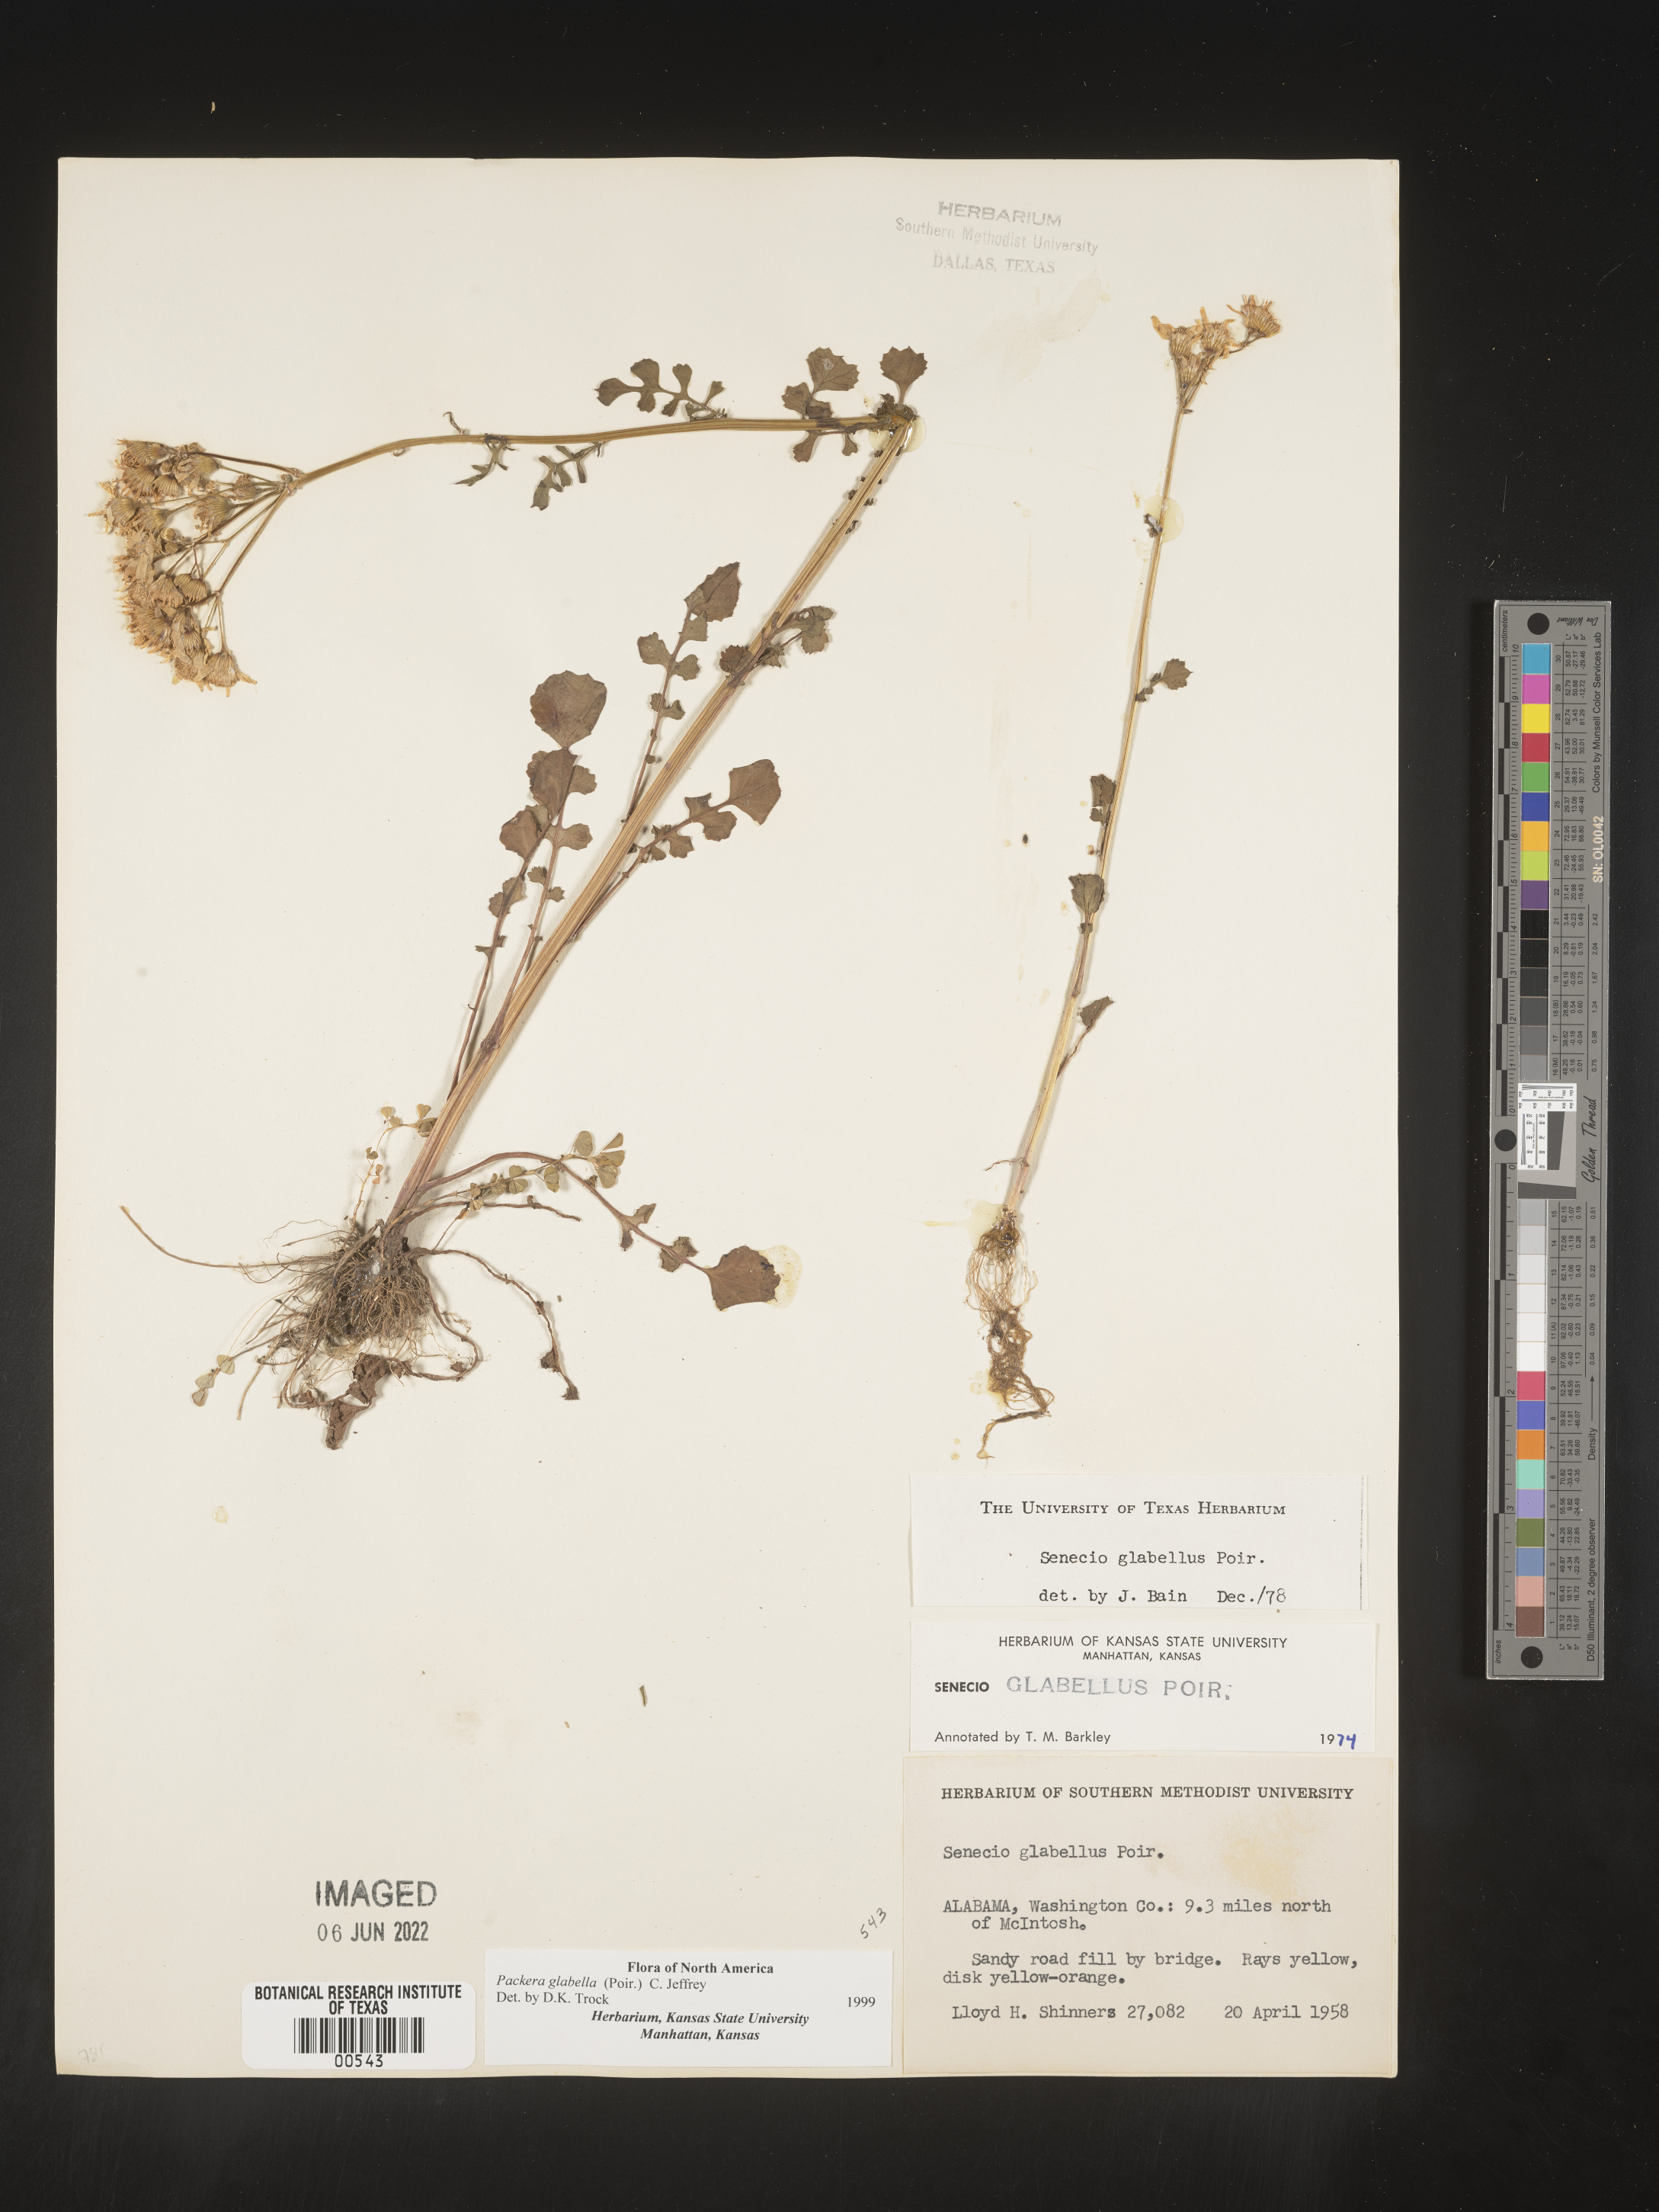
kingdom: Plantae
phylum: Tracheophyta
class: Magnoliopsida
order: Asterales
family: Asteraceae
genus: Packera
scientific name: Packera glabella
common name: Butterweed
